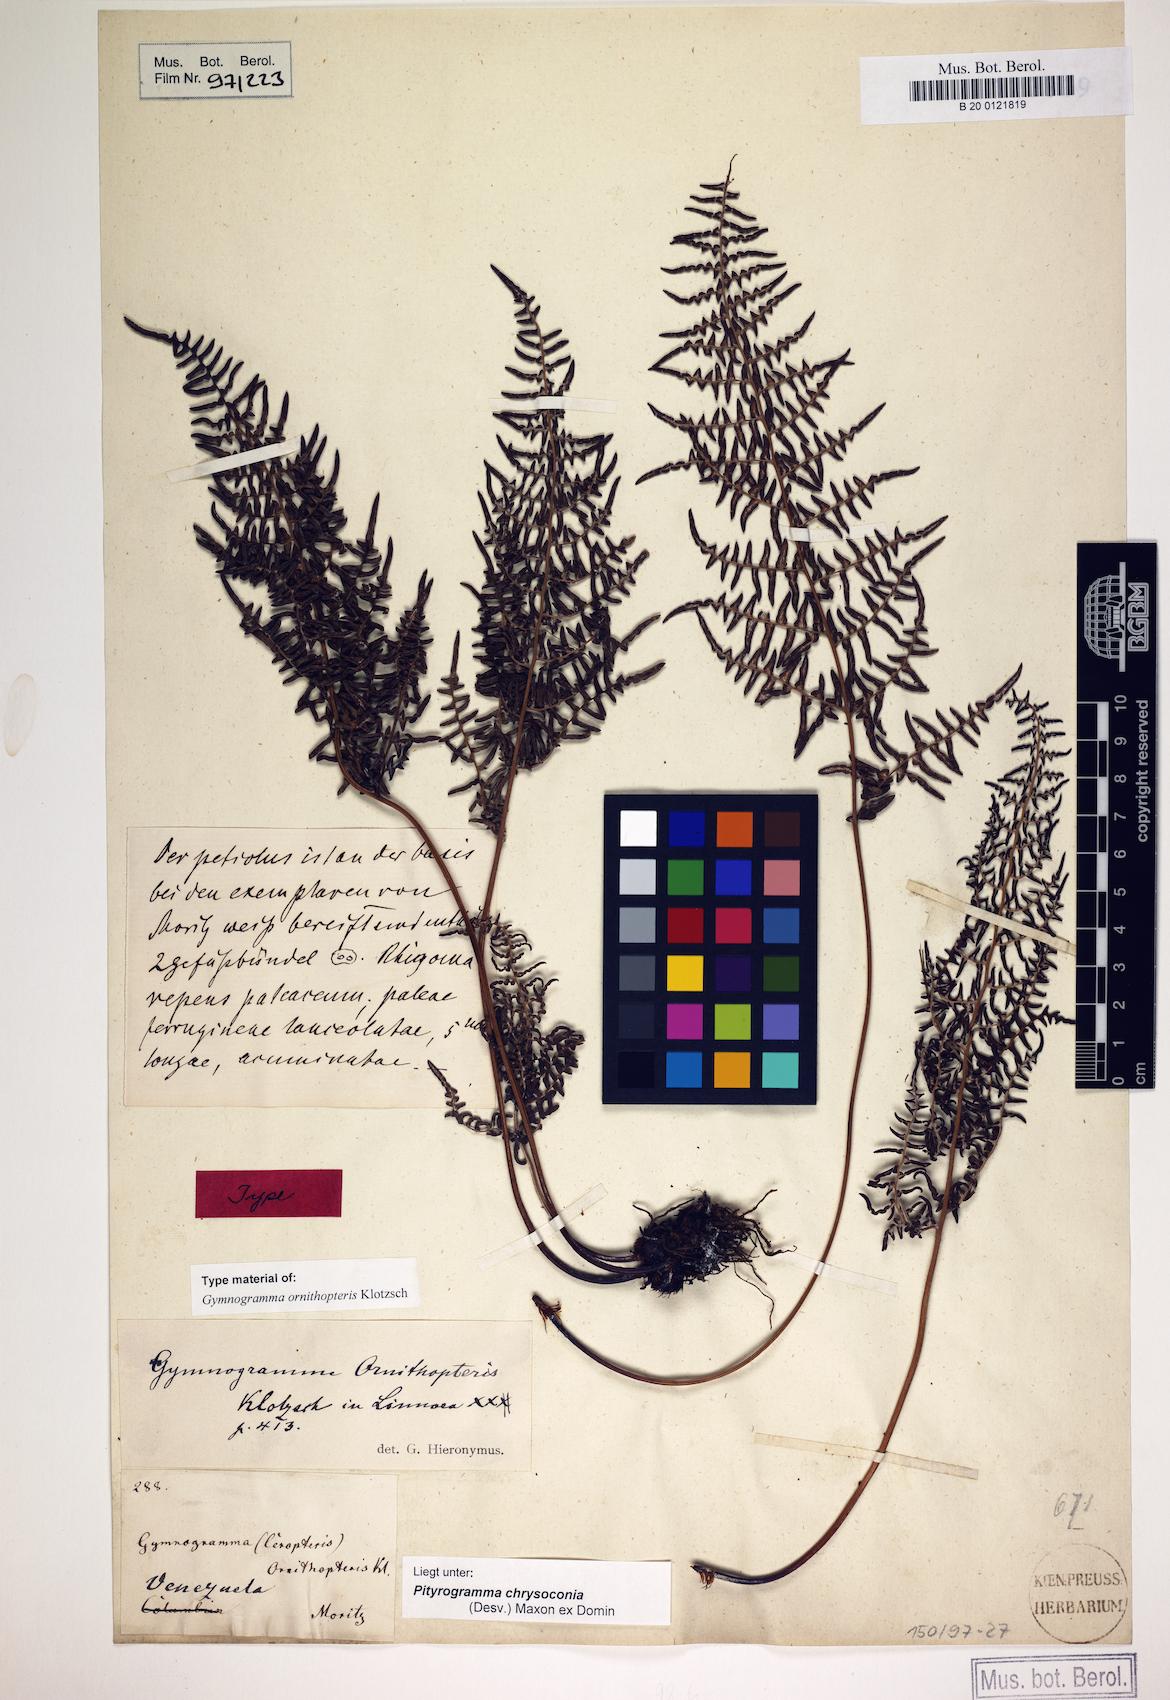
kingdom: Plantae
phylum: Tracheophyta
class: Polypodiopsida
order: Polypodiales
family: Pteridaceae
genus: Pityrogramma
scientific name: Pityrogramma chrysoconia
